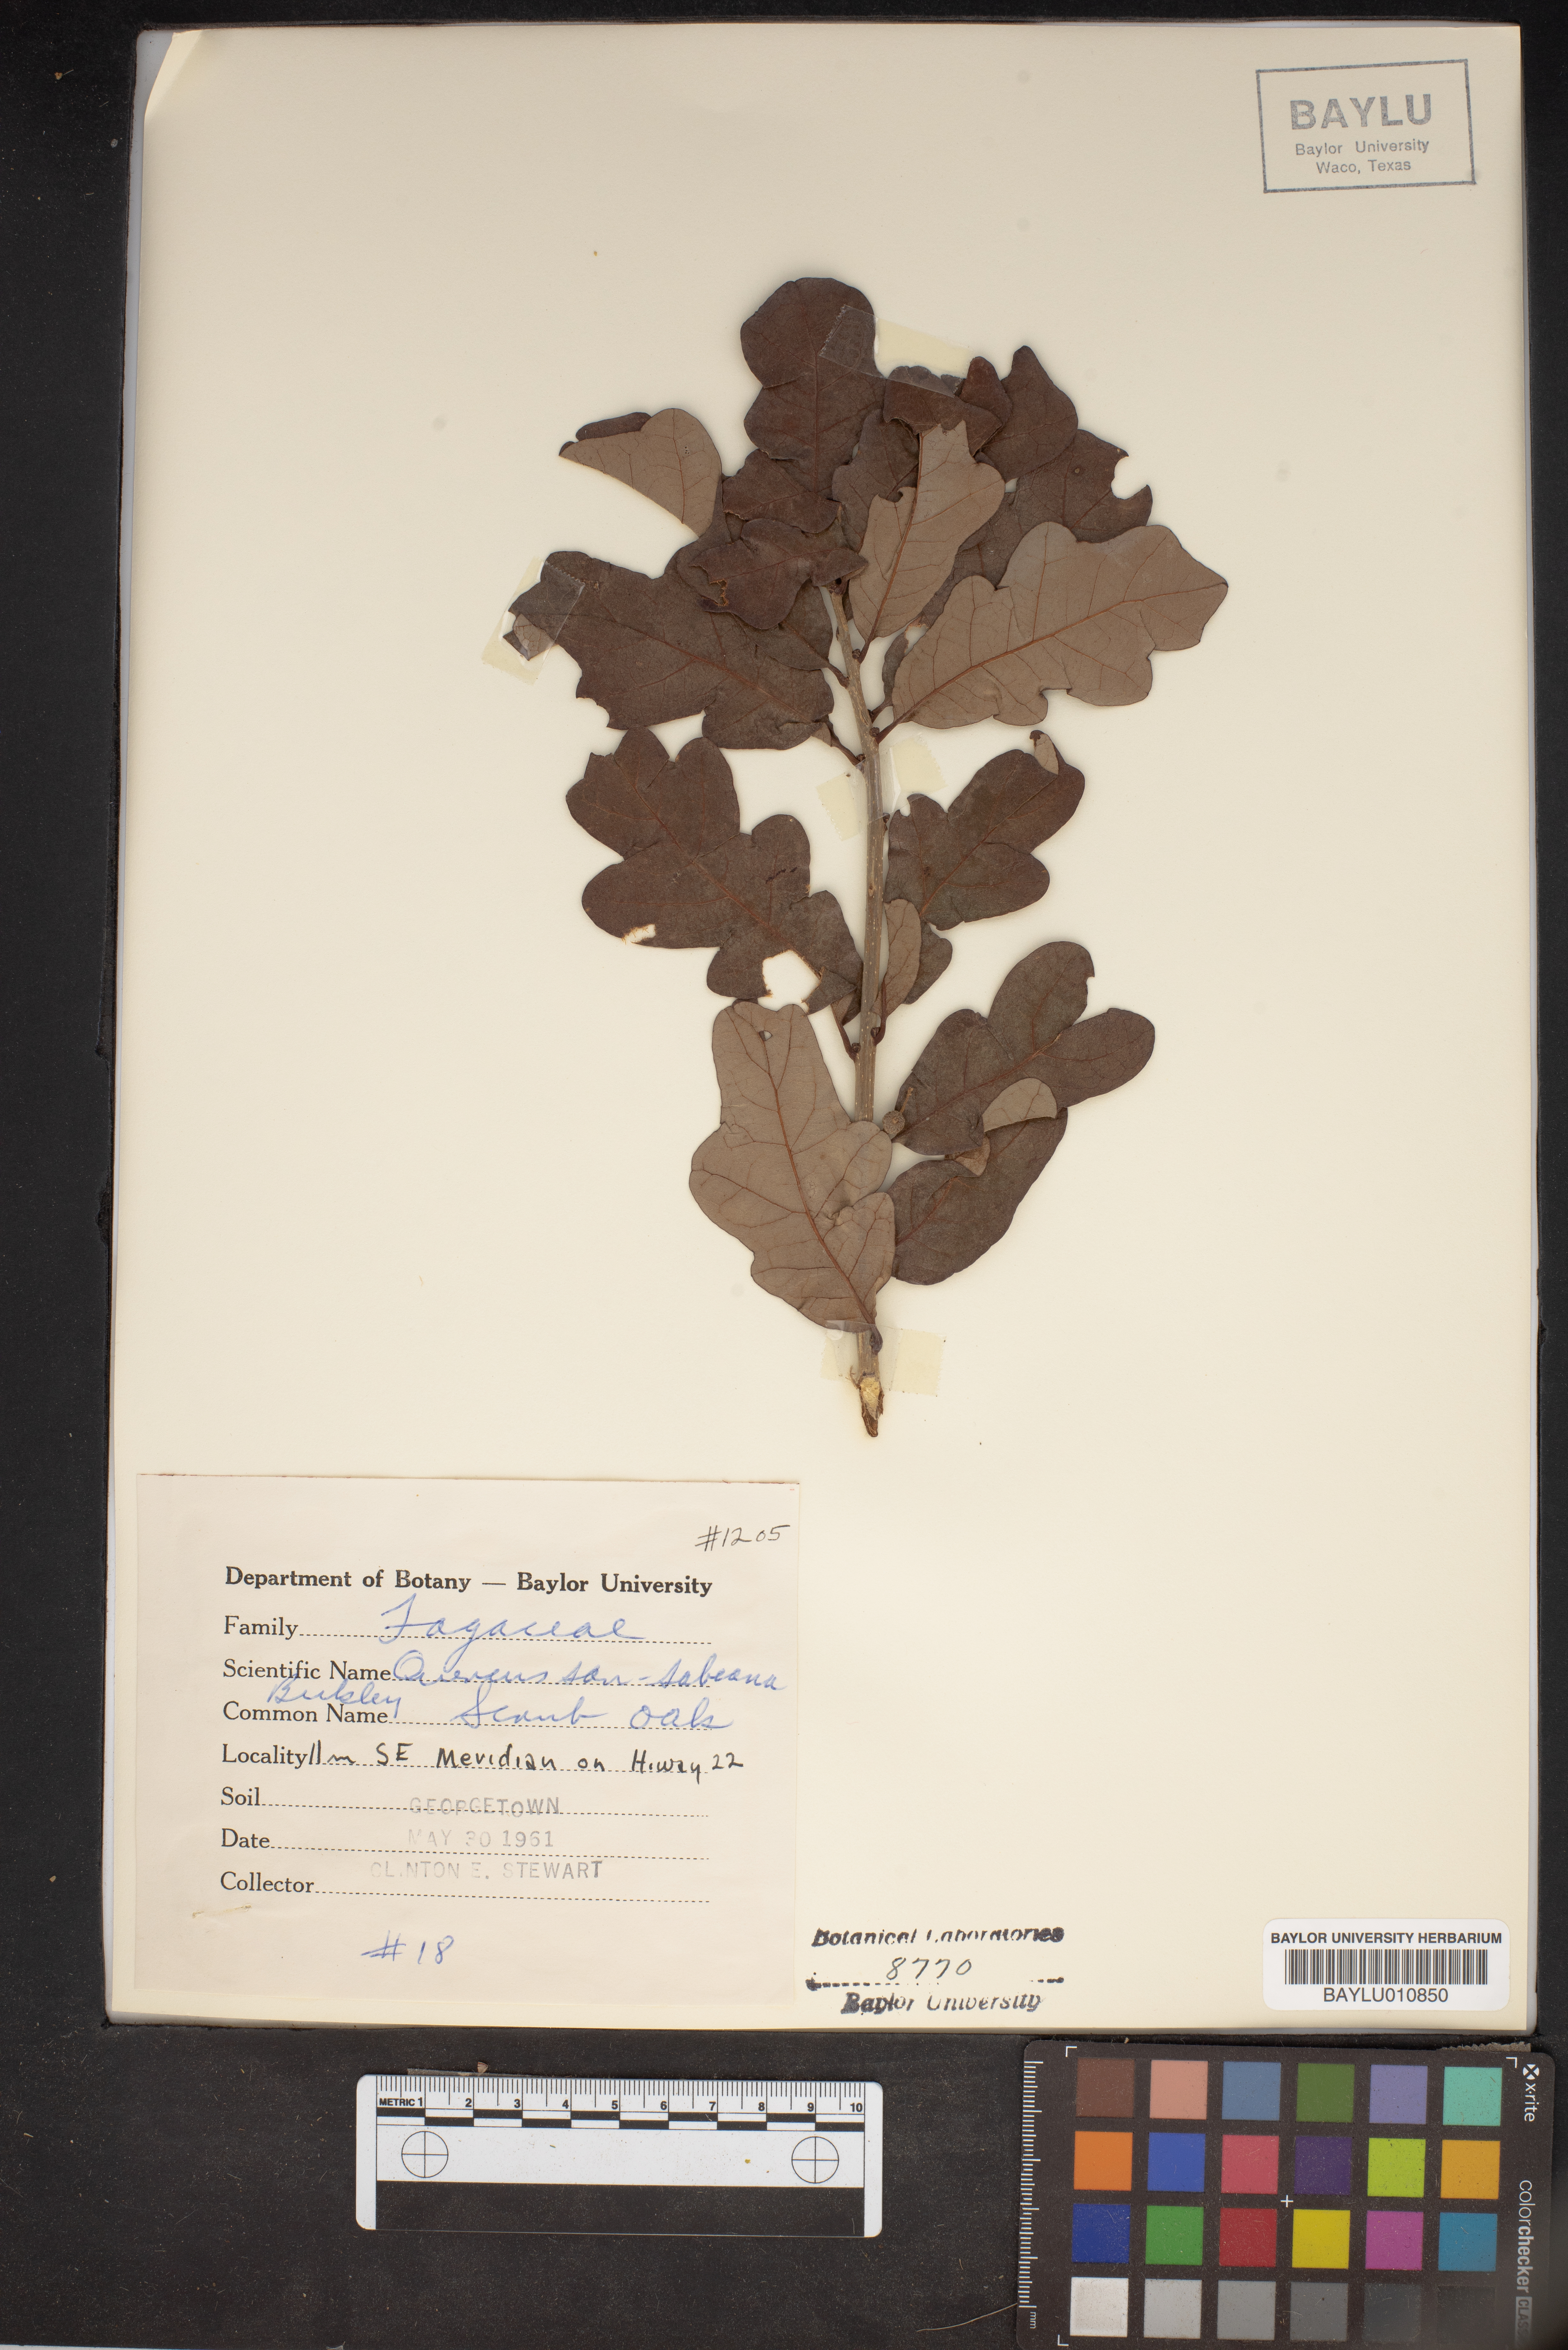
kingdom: Plantae
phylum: Tracheophyta
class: Magnoliopsida
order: Fagales
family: Fagaceae
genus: Quercus
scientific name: Quercus sinuata
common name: Durand oak
